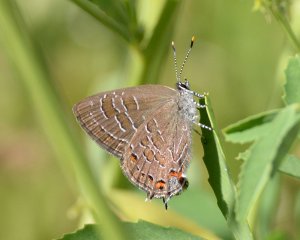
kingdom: Animalia
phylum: Arthropoda
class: Insecta
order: Lepidoptera
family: Lycaenidae
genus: Satyrium
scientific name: Satyrium liparops
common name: Striped Hairstreak
